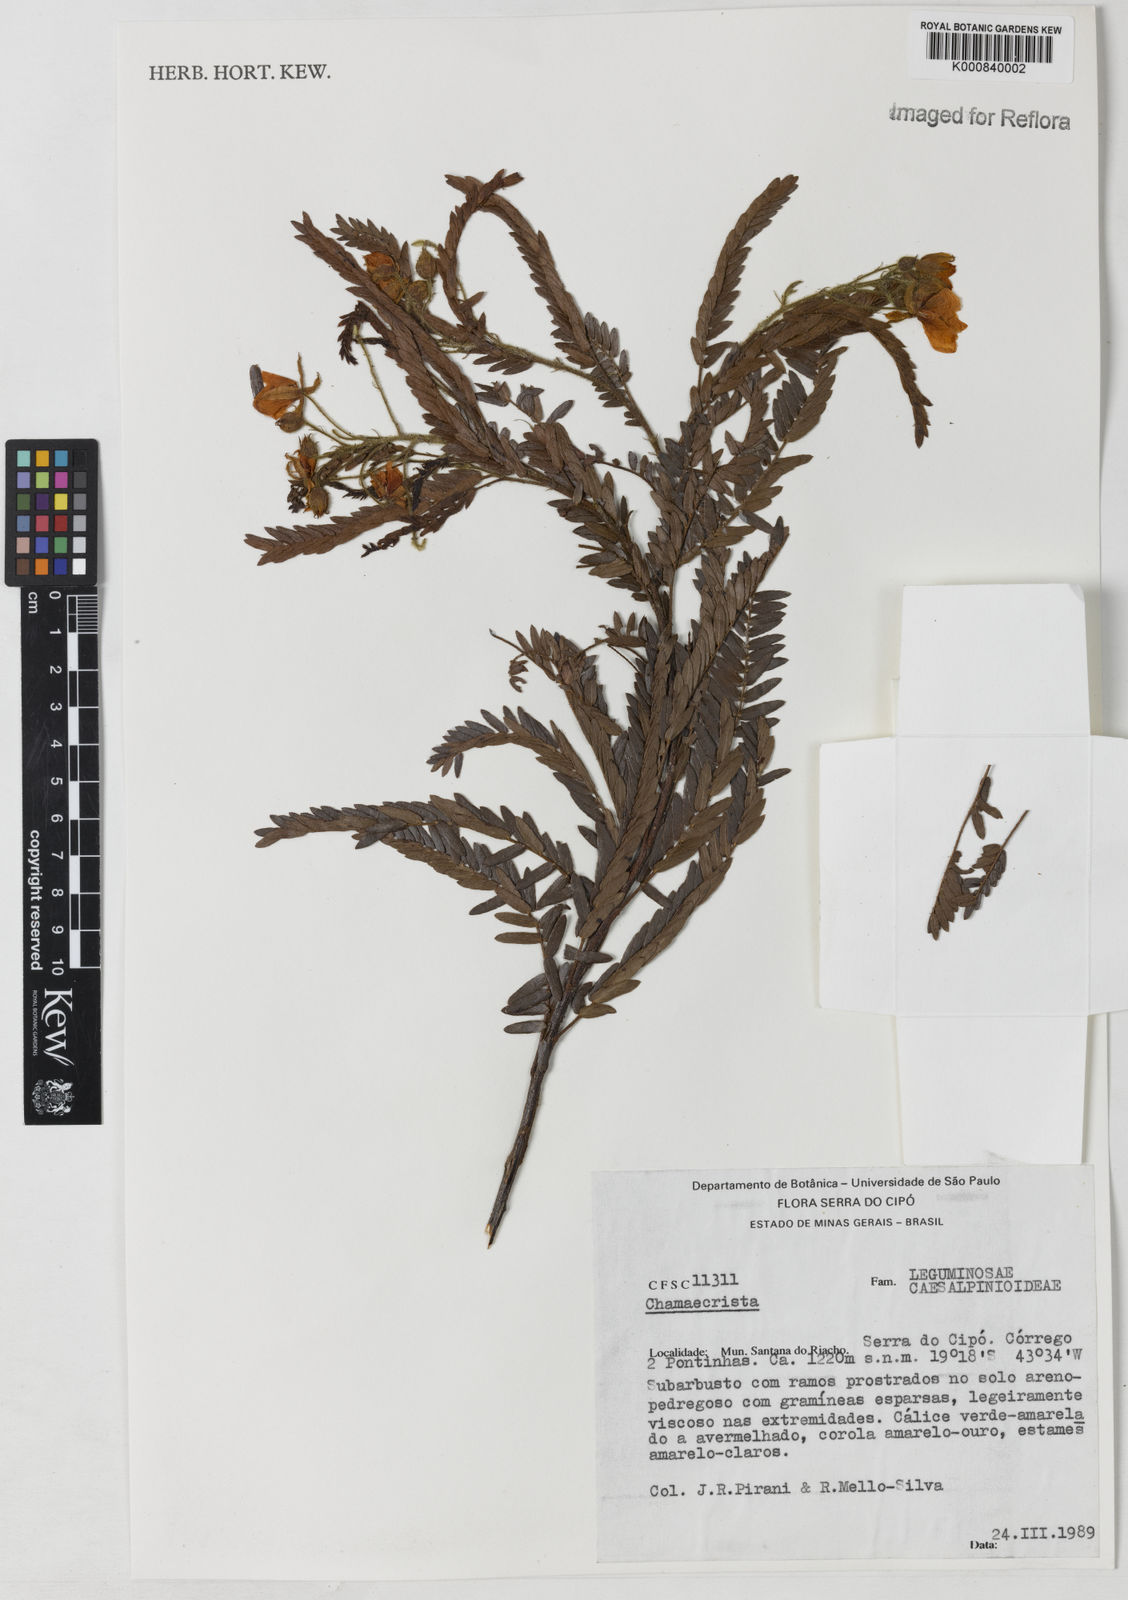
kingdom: Plantae
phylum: Tracheophyta
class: Magnoliopsida
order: Fabales
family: Fabaceae
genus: Chamaecrista
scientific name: Chamaecrista neesiana
